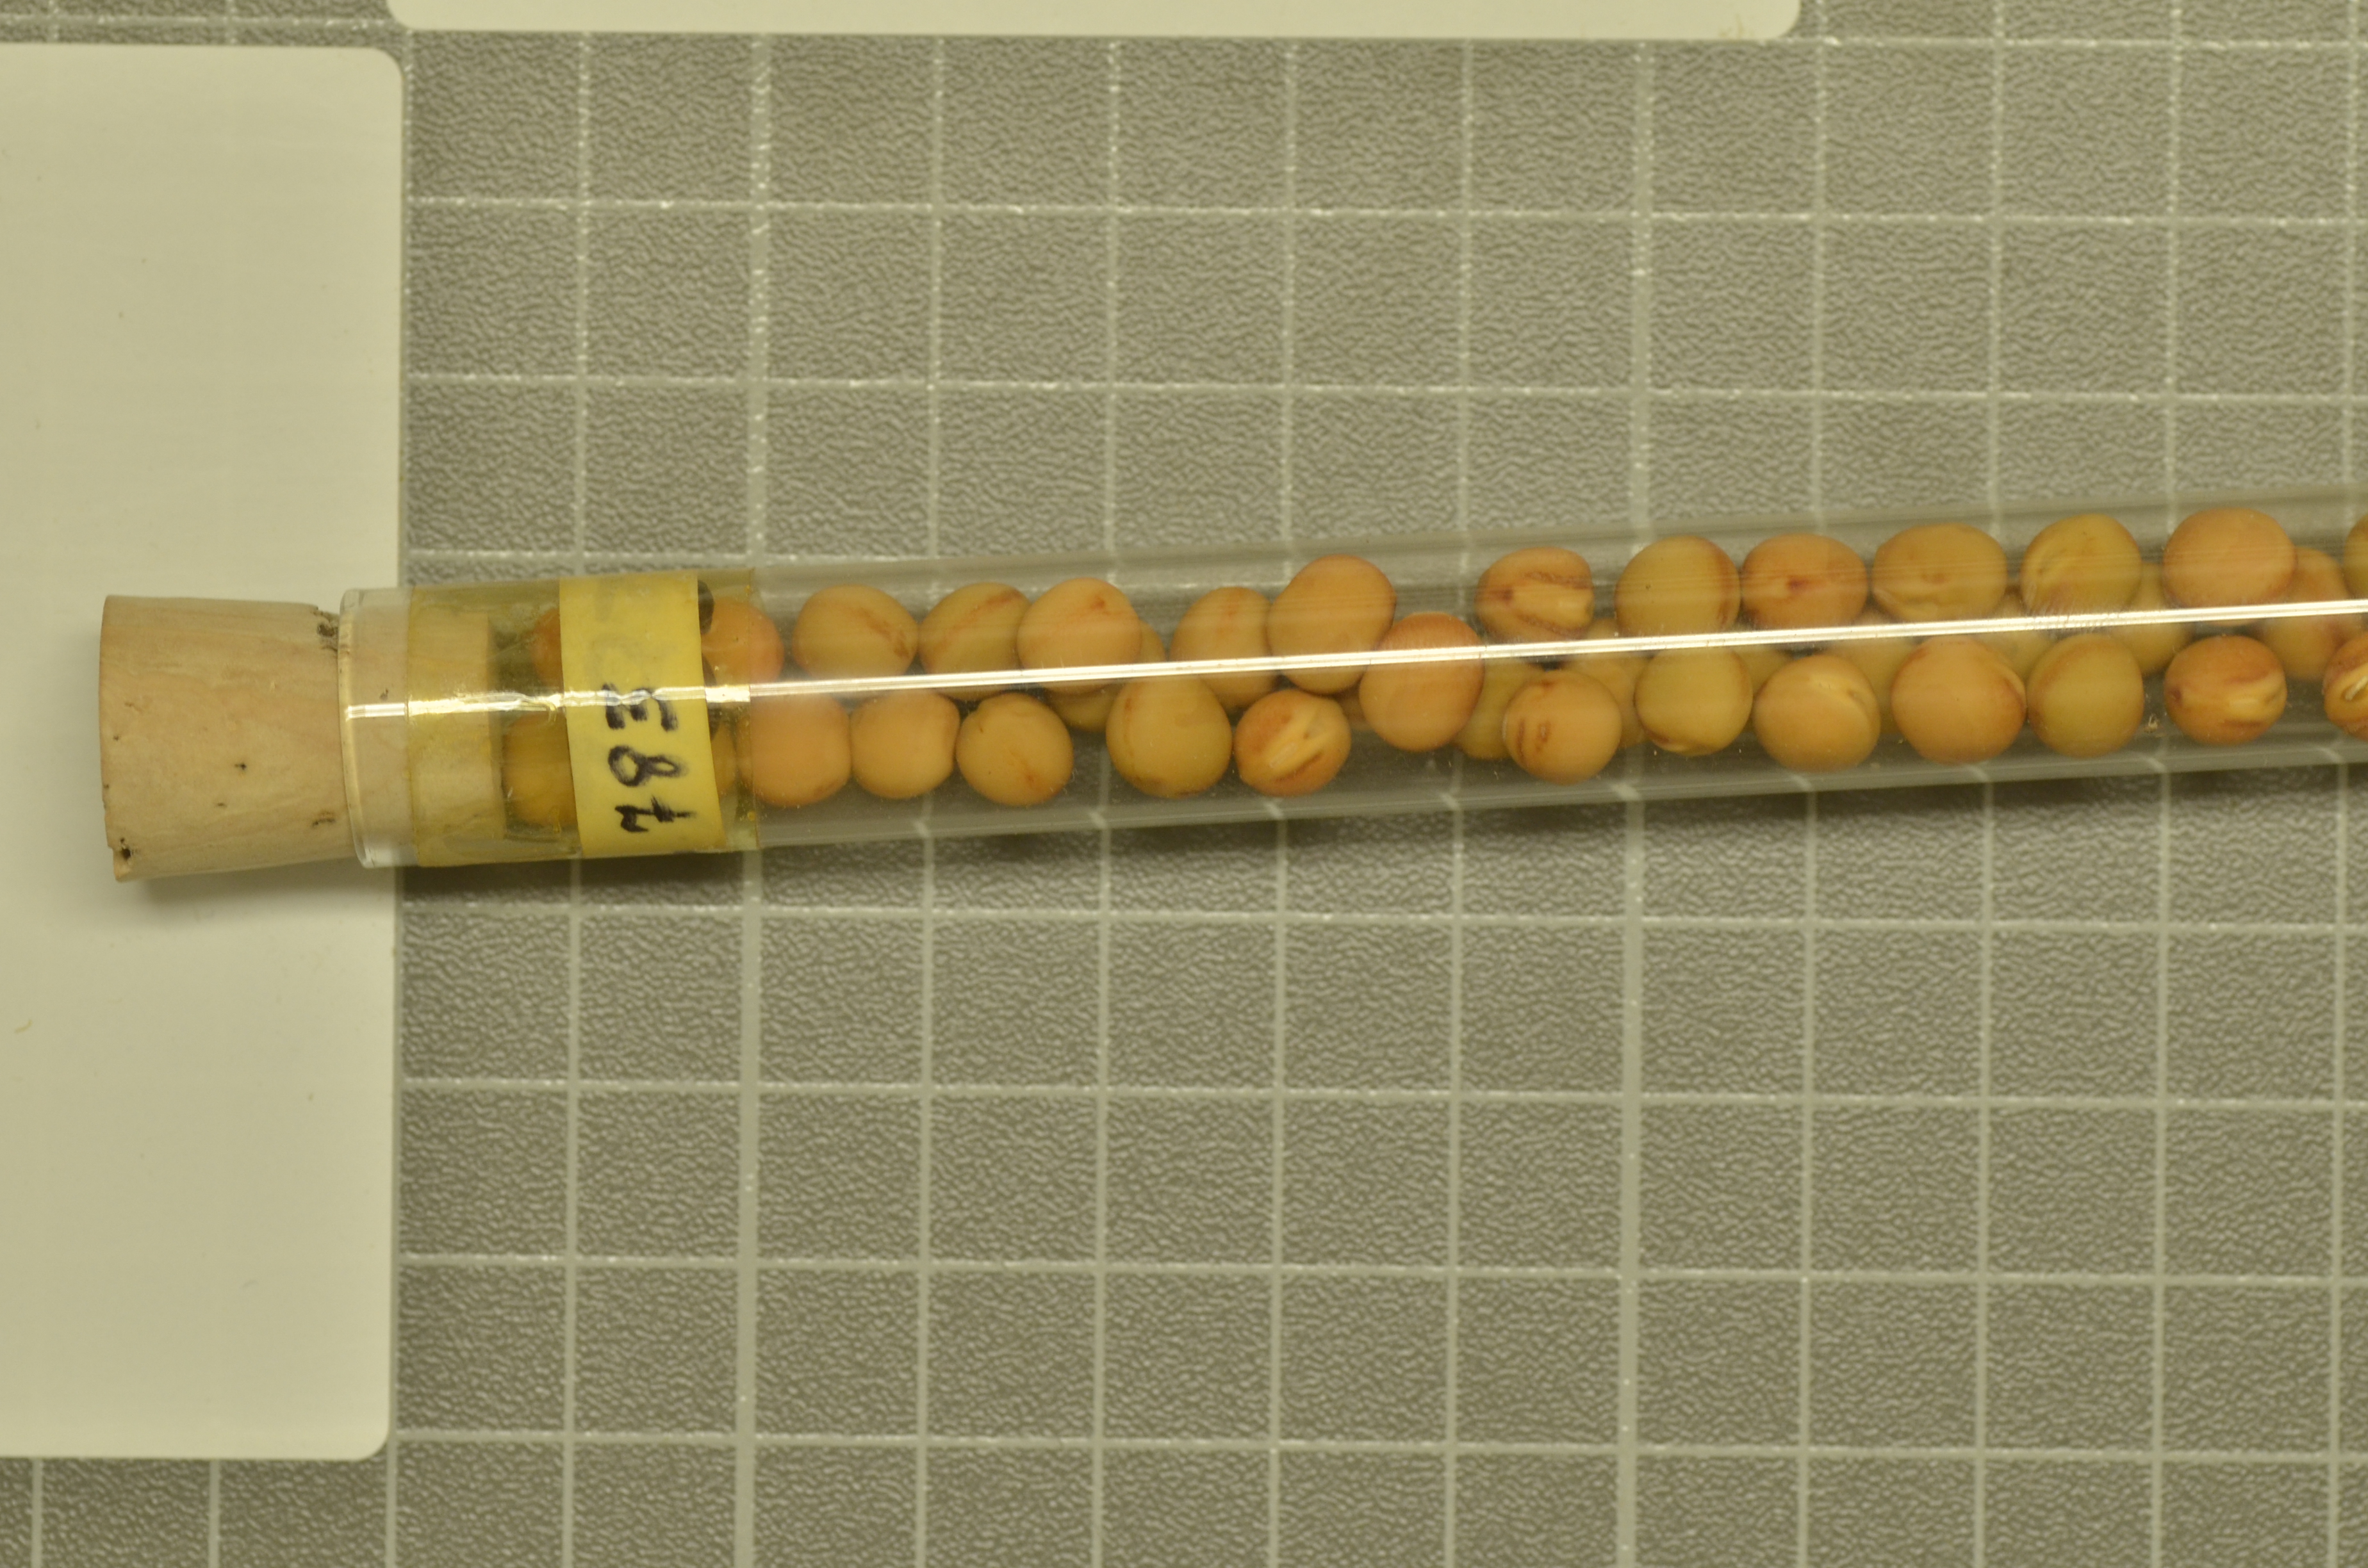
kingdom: Plantae
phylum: Tracheophyta
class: Magnoliopsida
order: Fabales
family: Fabaceae
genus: Lathyrus
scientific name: Lathyrus oleraceus
